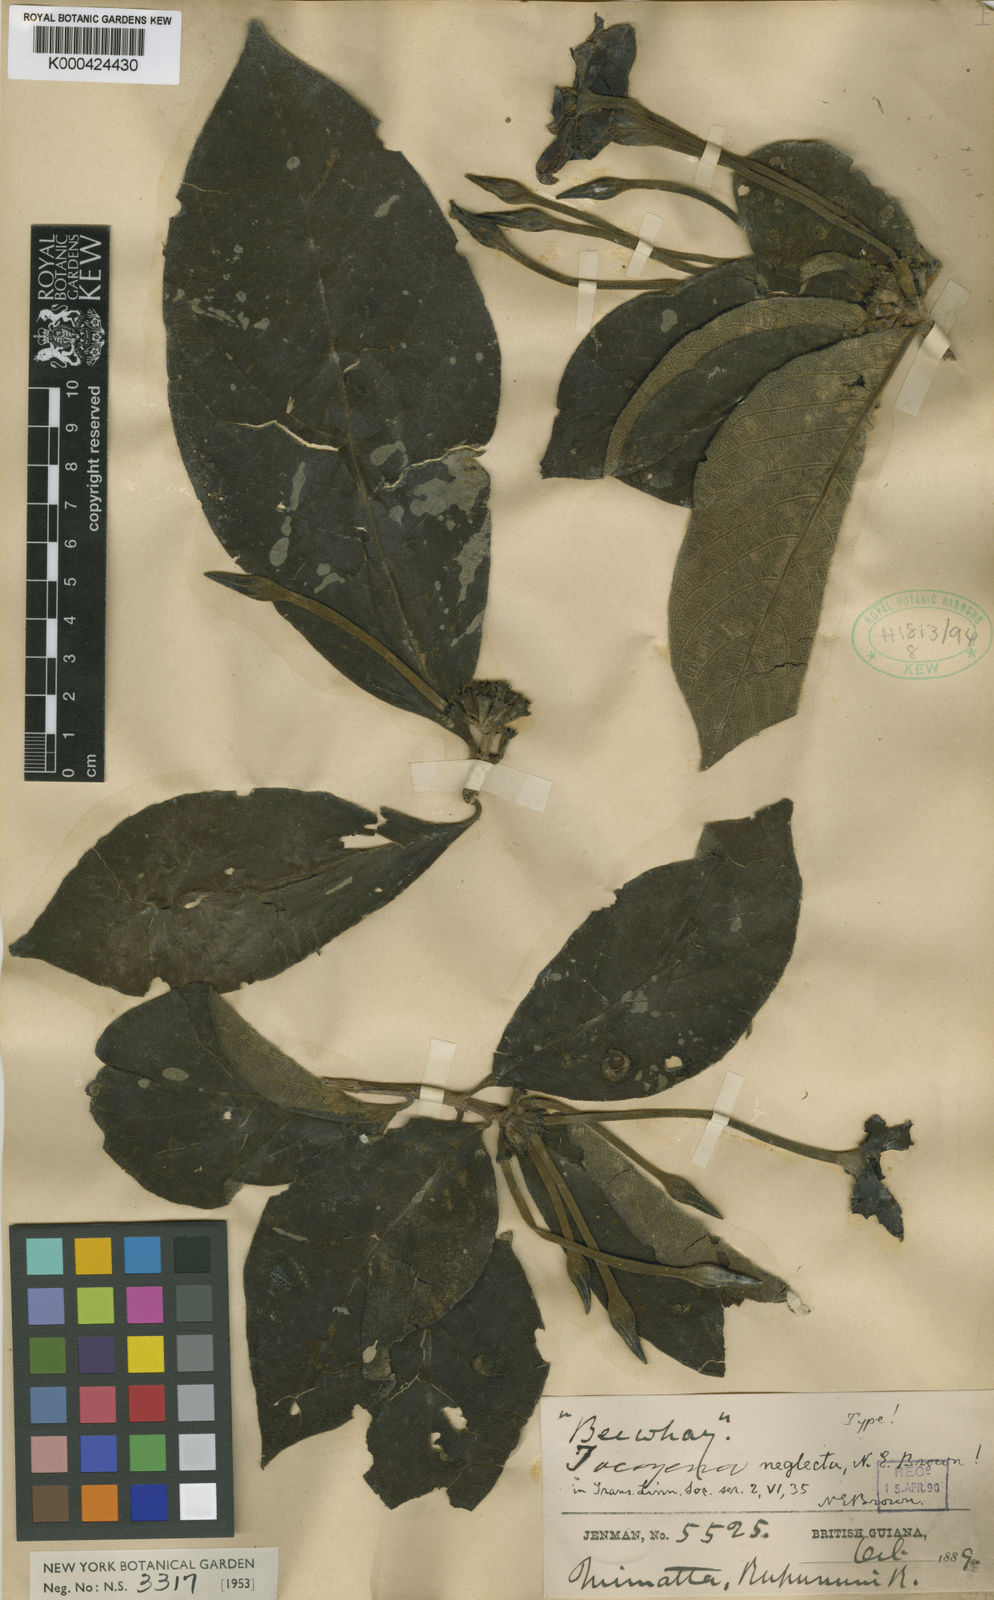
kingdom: Plantae
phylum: Tracheophyta
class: Magnoliopsida
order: Gentianales
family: Rubiaceae
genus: Tocoyena
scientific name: Tocoyena neglecta
